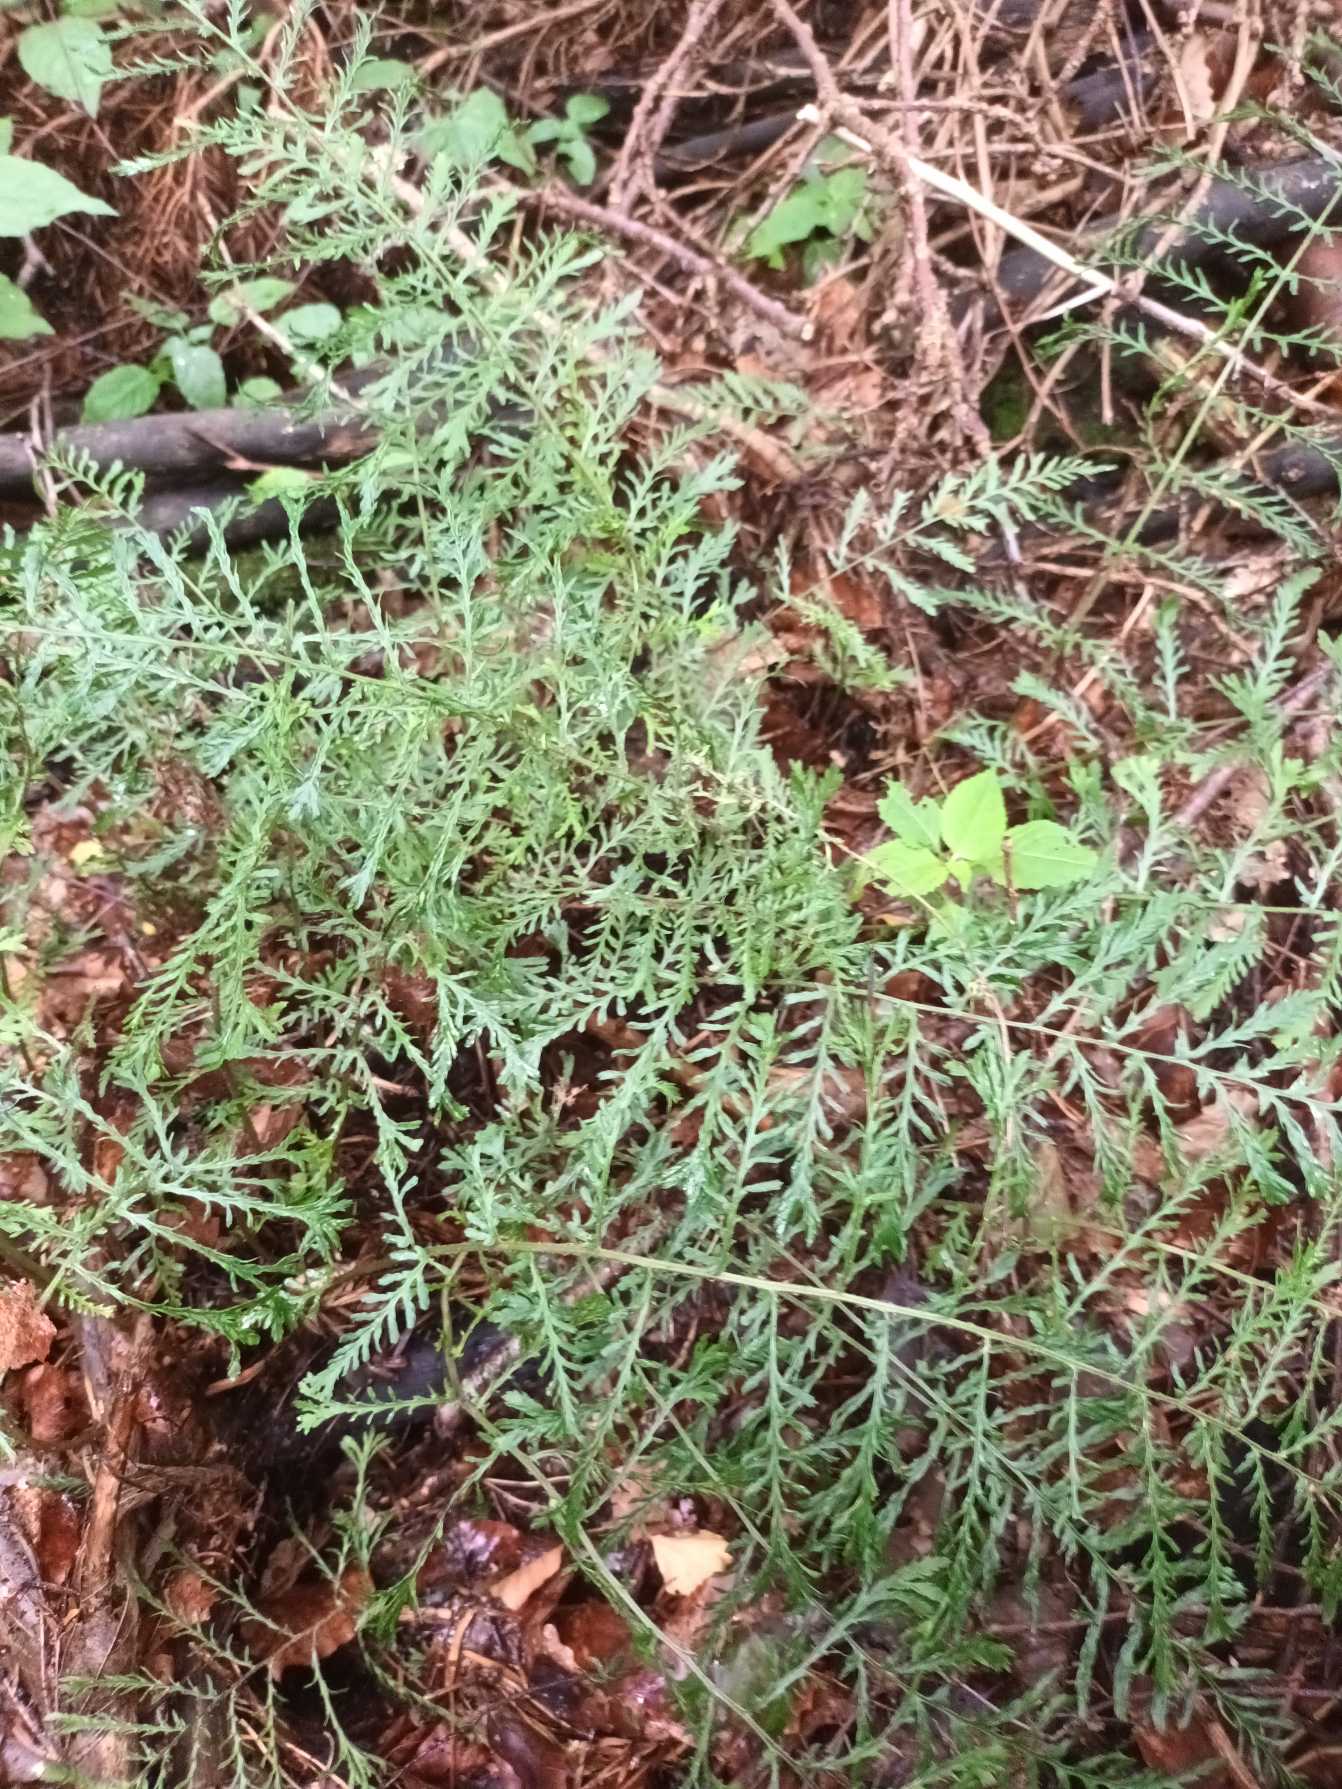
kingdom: Plantae
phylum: Tracheophyta
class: Polypodiopsida
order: Polypodiales
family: Dryopteridaceae
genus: Dryopteris
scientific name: Dryopteris filix-mas
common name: Almindelig mangeløv
